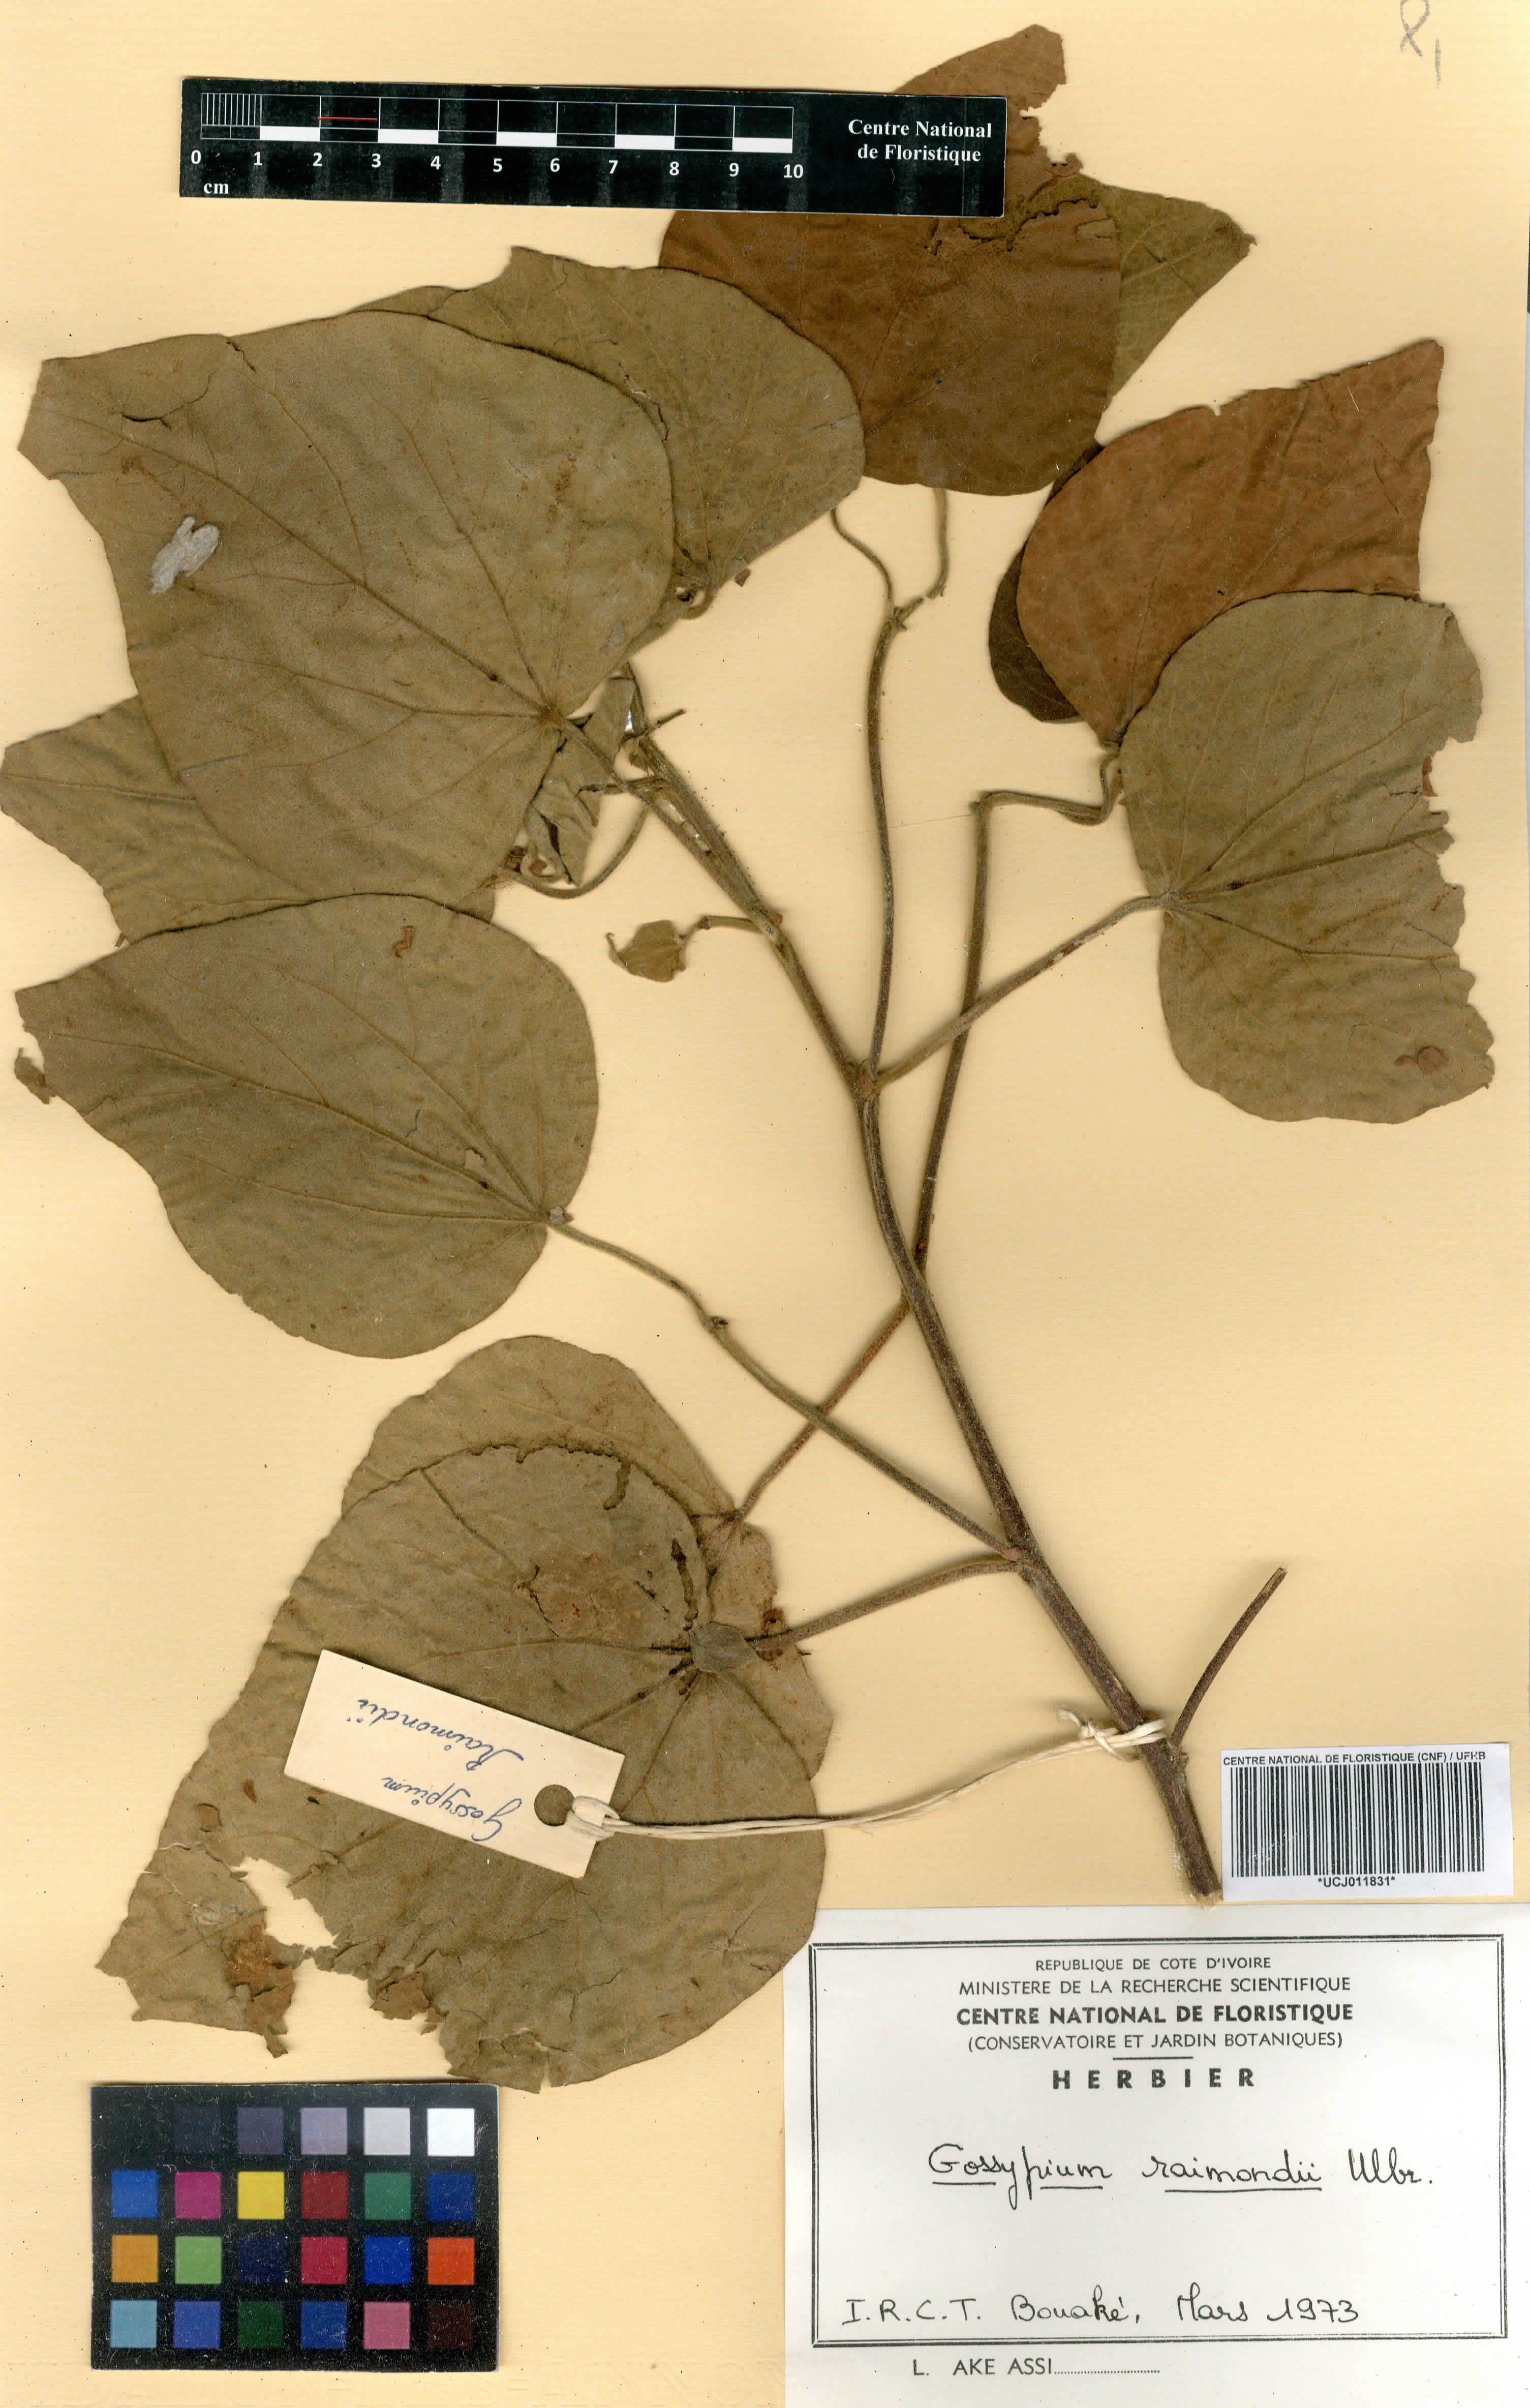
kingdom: Plantae
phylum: Tracheophyta
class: Magnoliopsida
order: Malvales
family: Malvaceae
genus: Gossypium
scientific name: Gossypium raimondii
